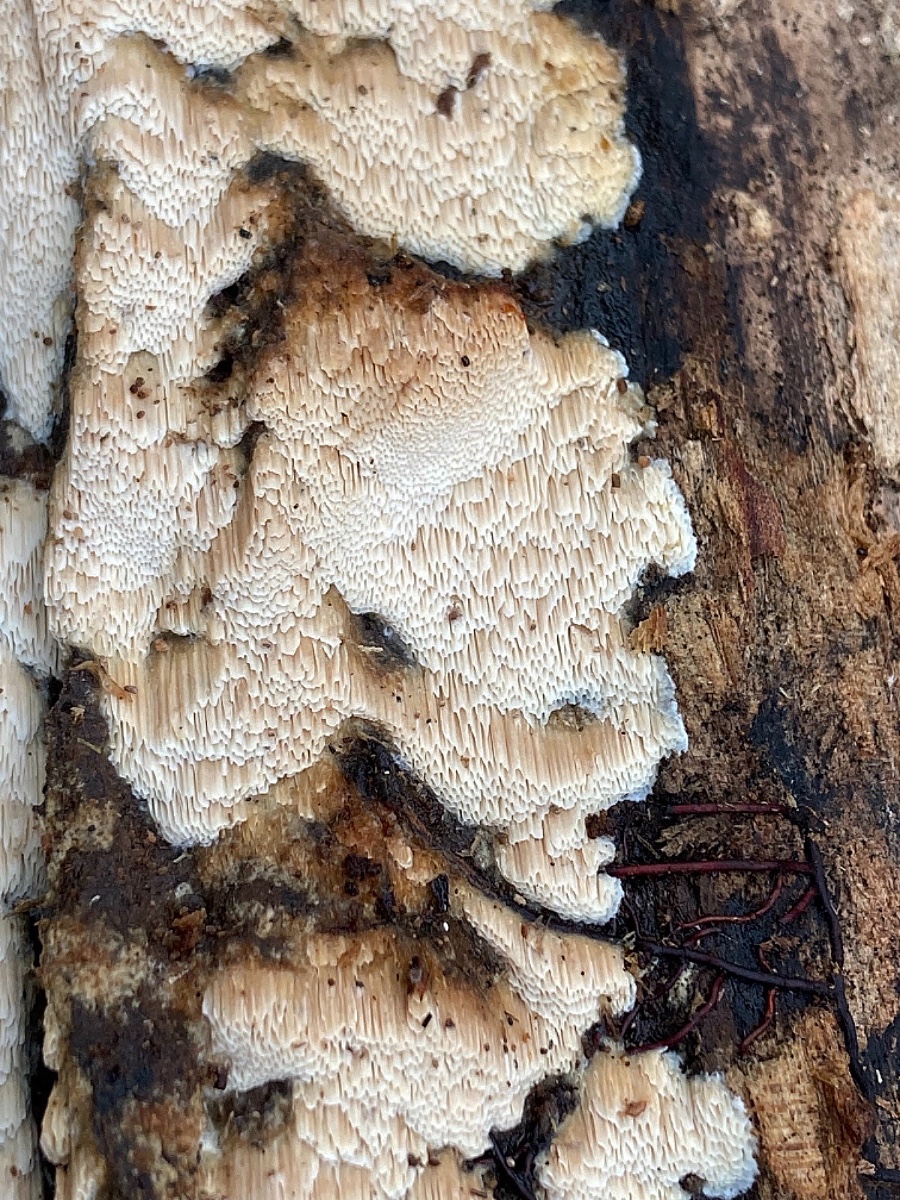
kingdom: Fungi
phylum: Basidiomycota
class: Agaricomycetes
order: Polyporales
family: Meruliaceae
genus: Mycoacia
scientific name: Mycoacia gilvescens
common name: rosa pastelporesvamp
